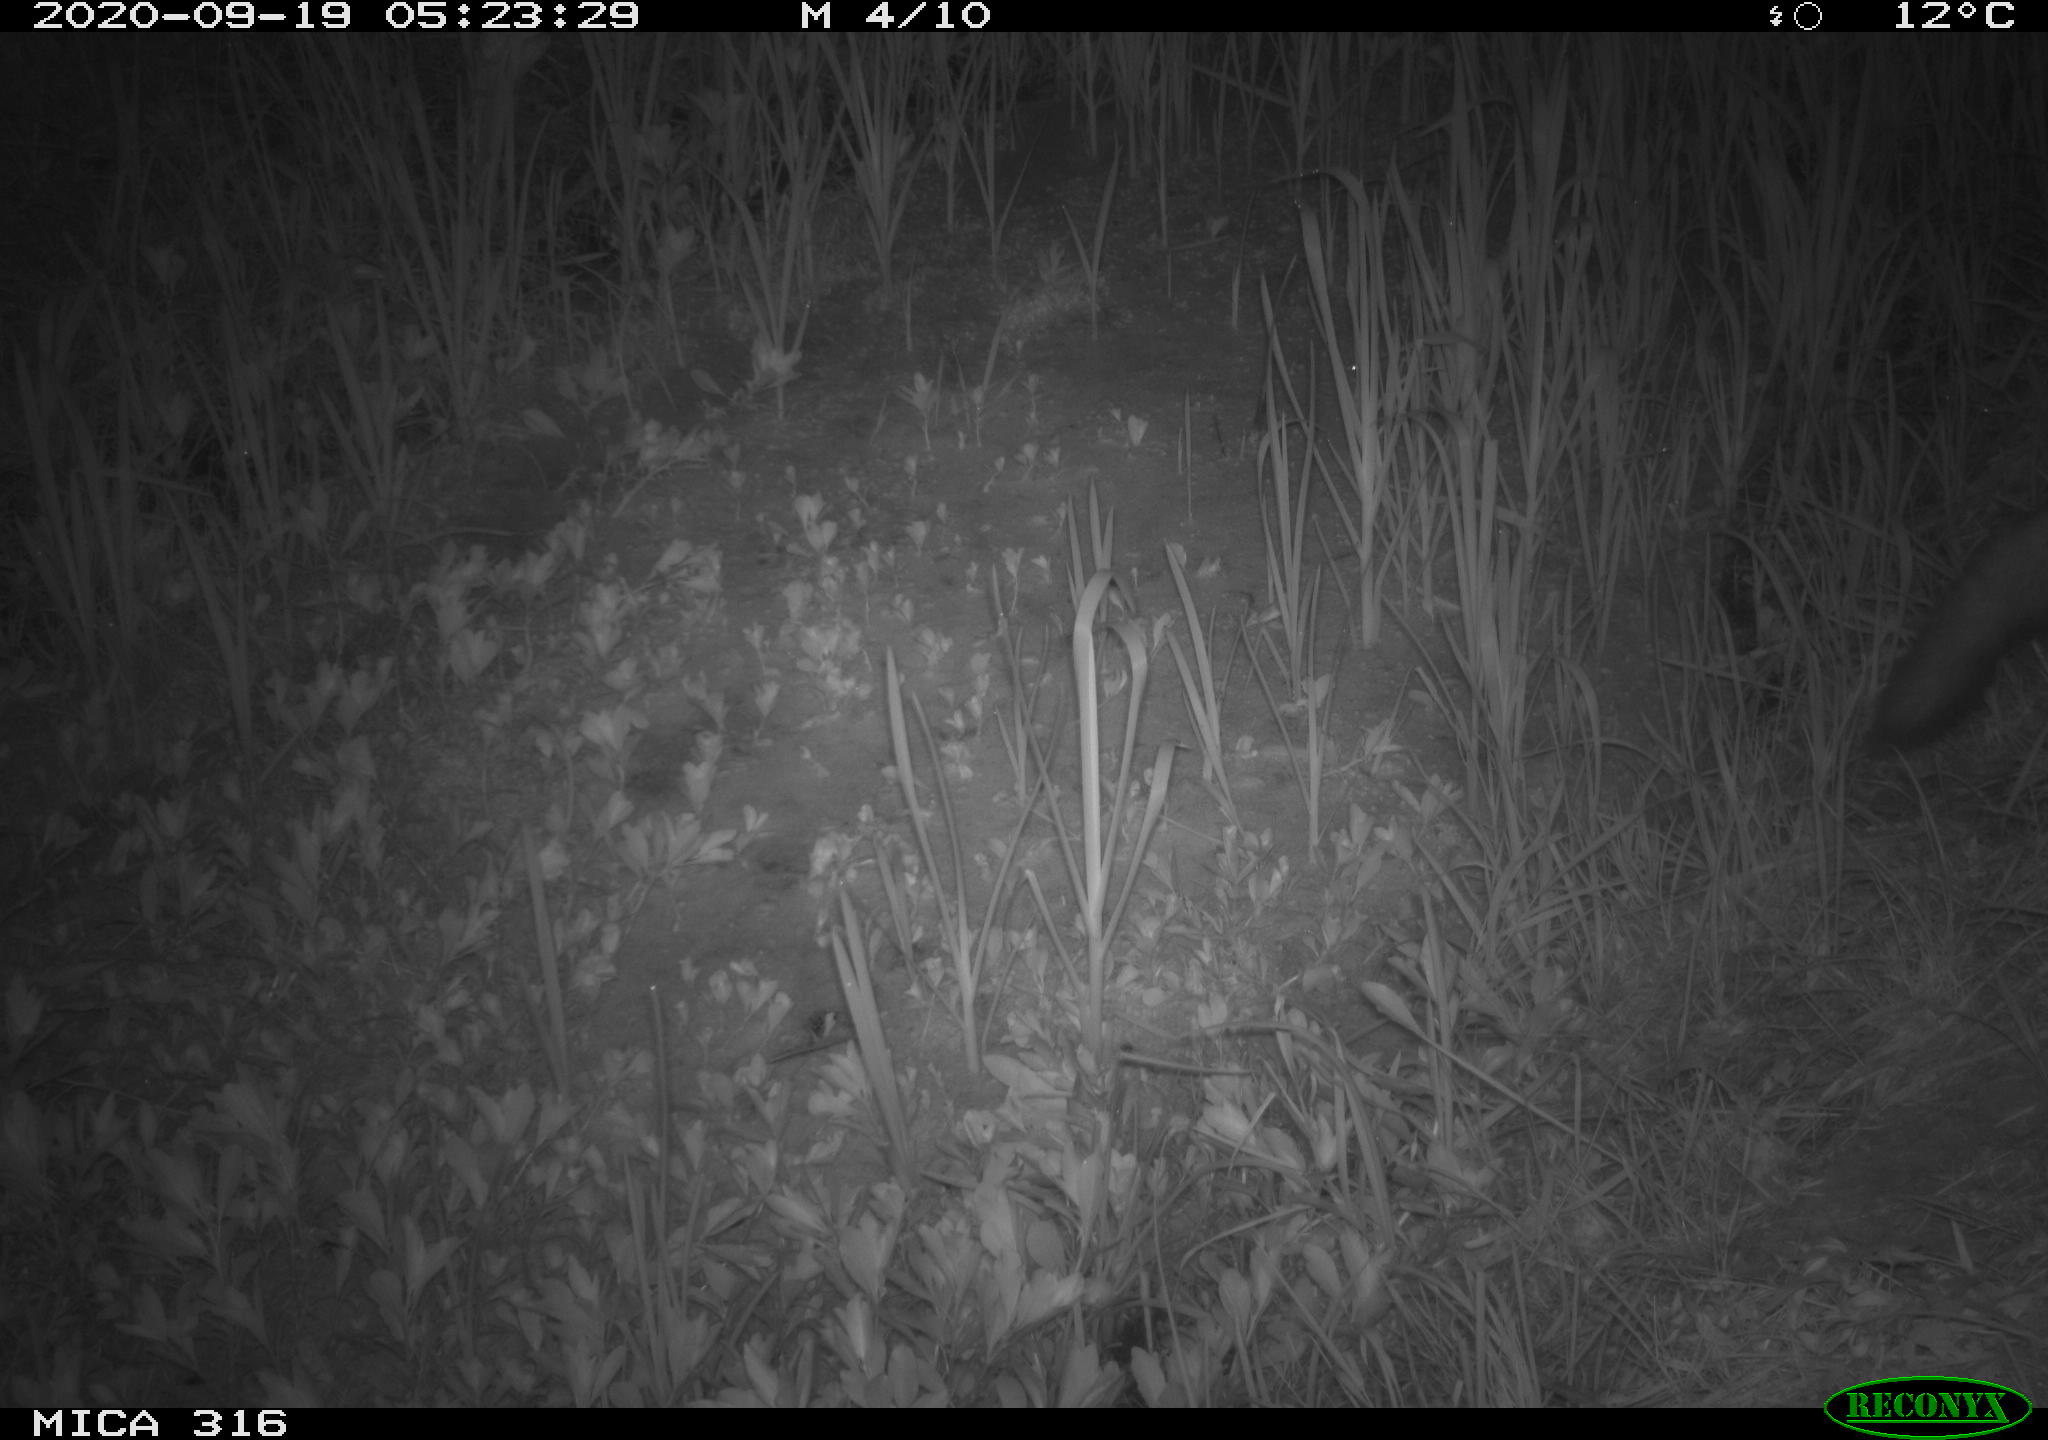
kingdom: Animalia
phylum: Chordata
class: Mammalia
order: Carnivora
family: Canidae
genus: Vulpes
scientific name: Vulpes vulpes
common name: Red fox
